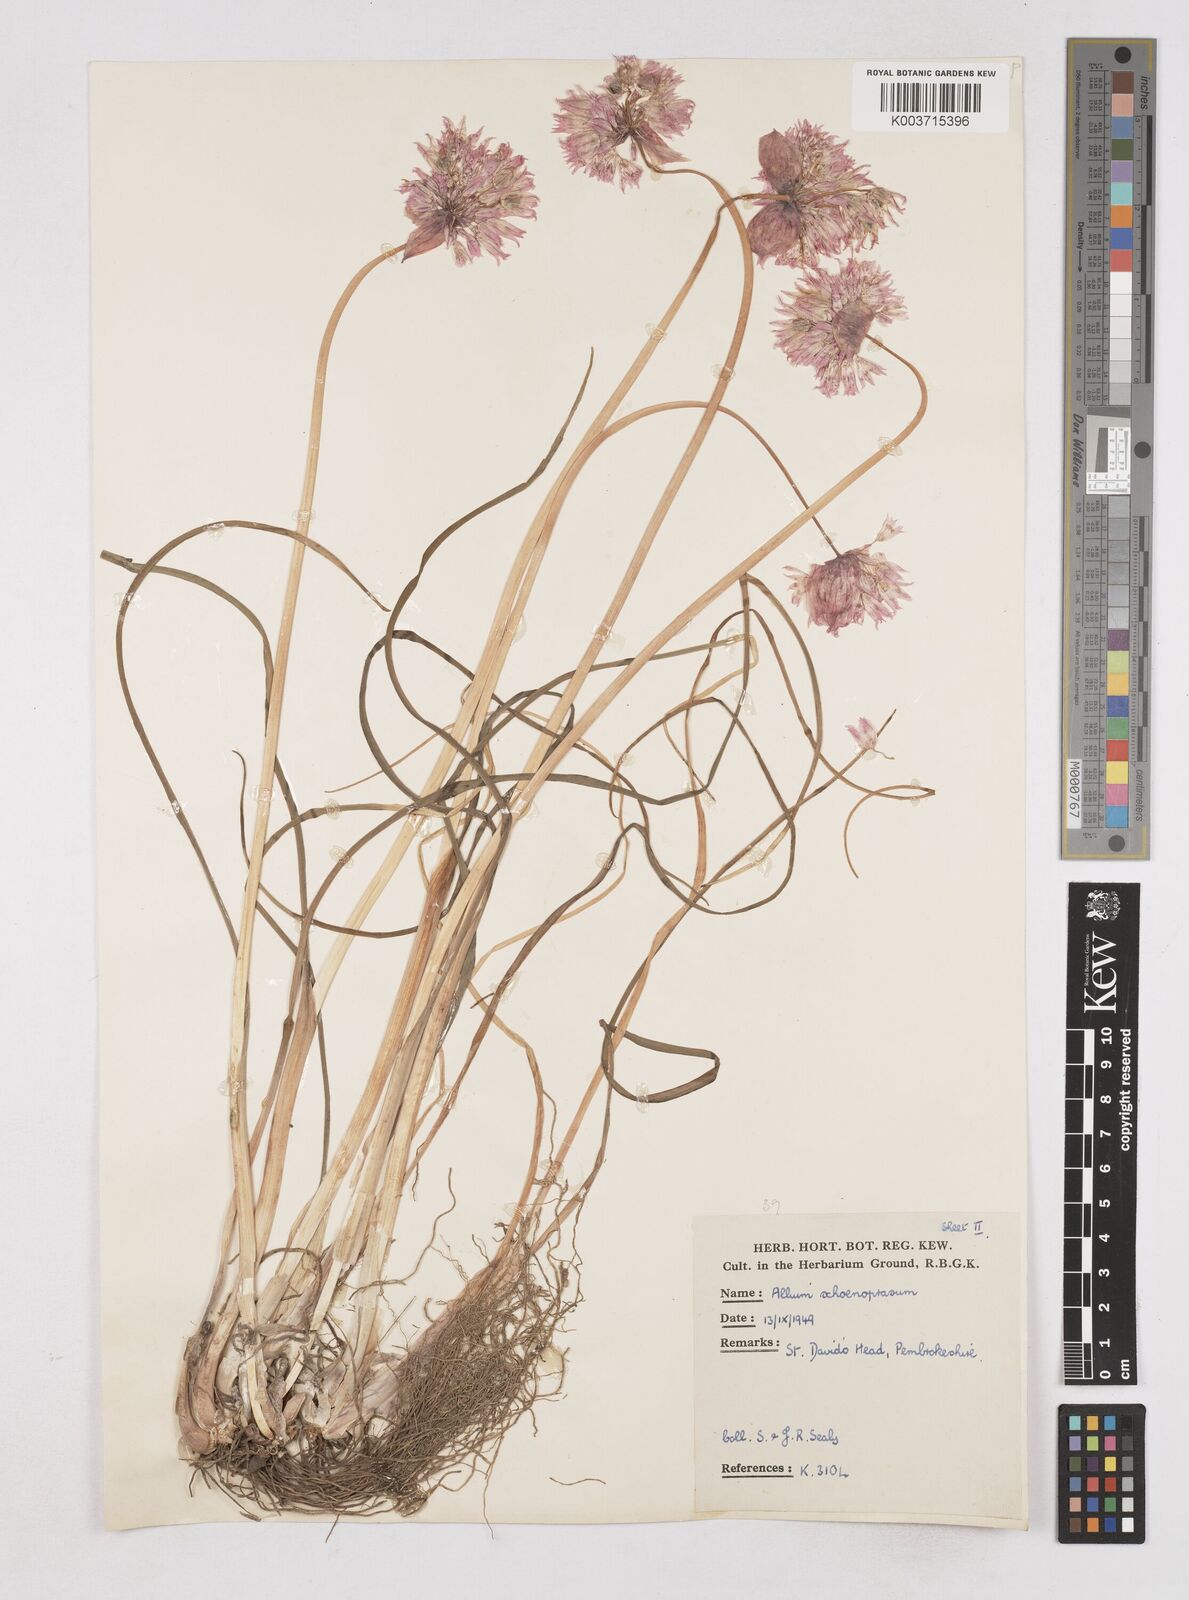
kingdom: Plantae
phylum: Tracheophyta
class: Liliopsida
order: Asparagales
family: Amaryllidaceae
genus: Allium
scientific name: Allium schoenoprasum
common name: Chives
